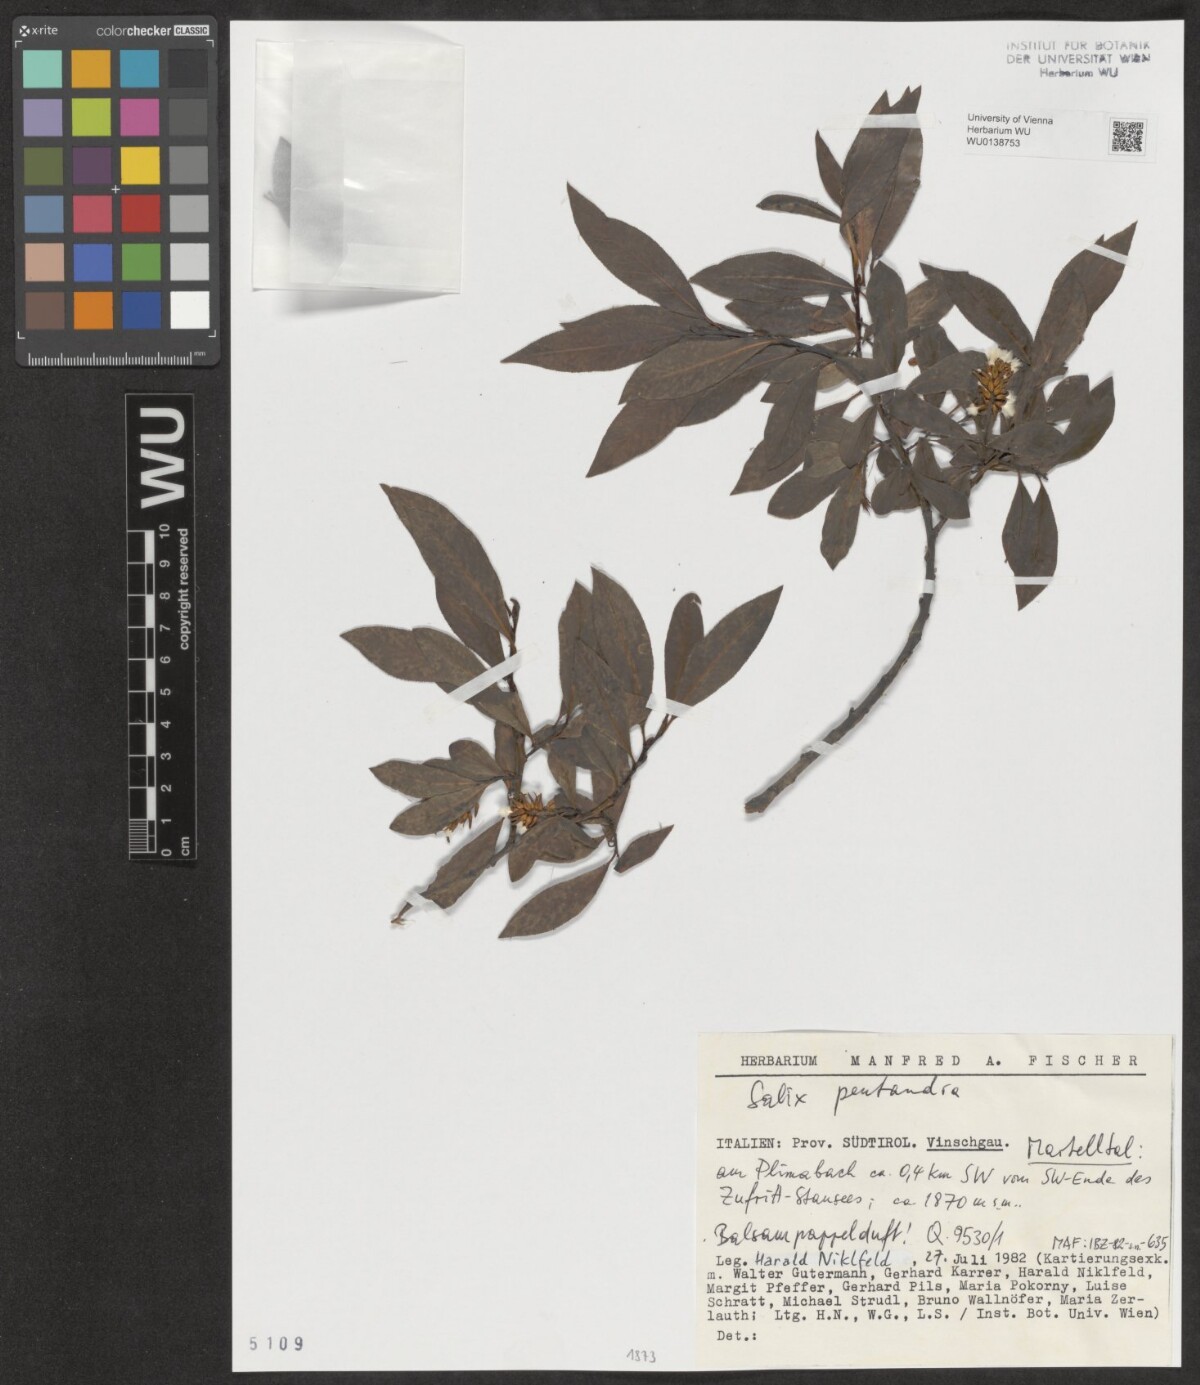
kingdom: Plantae
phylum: Tracheophyta
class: Magnoliopsida
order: Malpighiales
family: Salicaceae
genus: Salix
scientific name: Salix pentandra
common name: Bay willow
